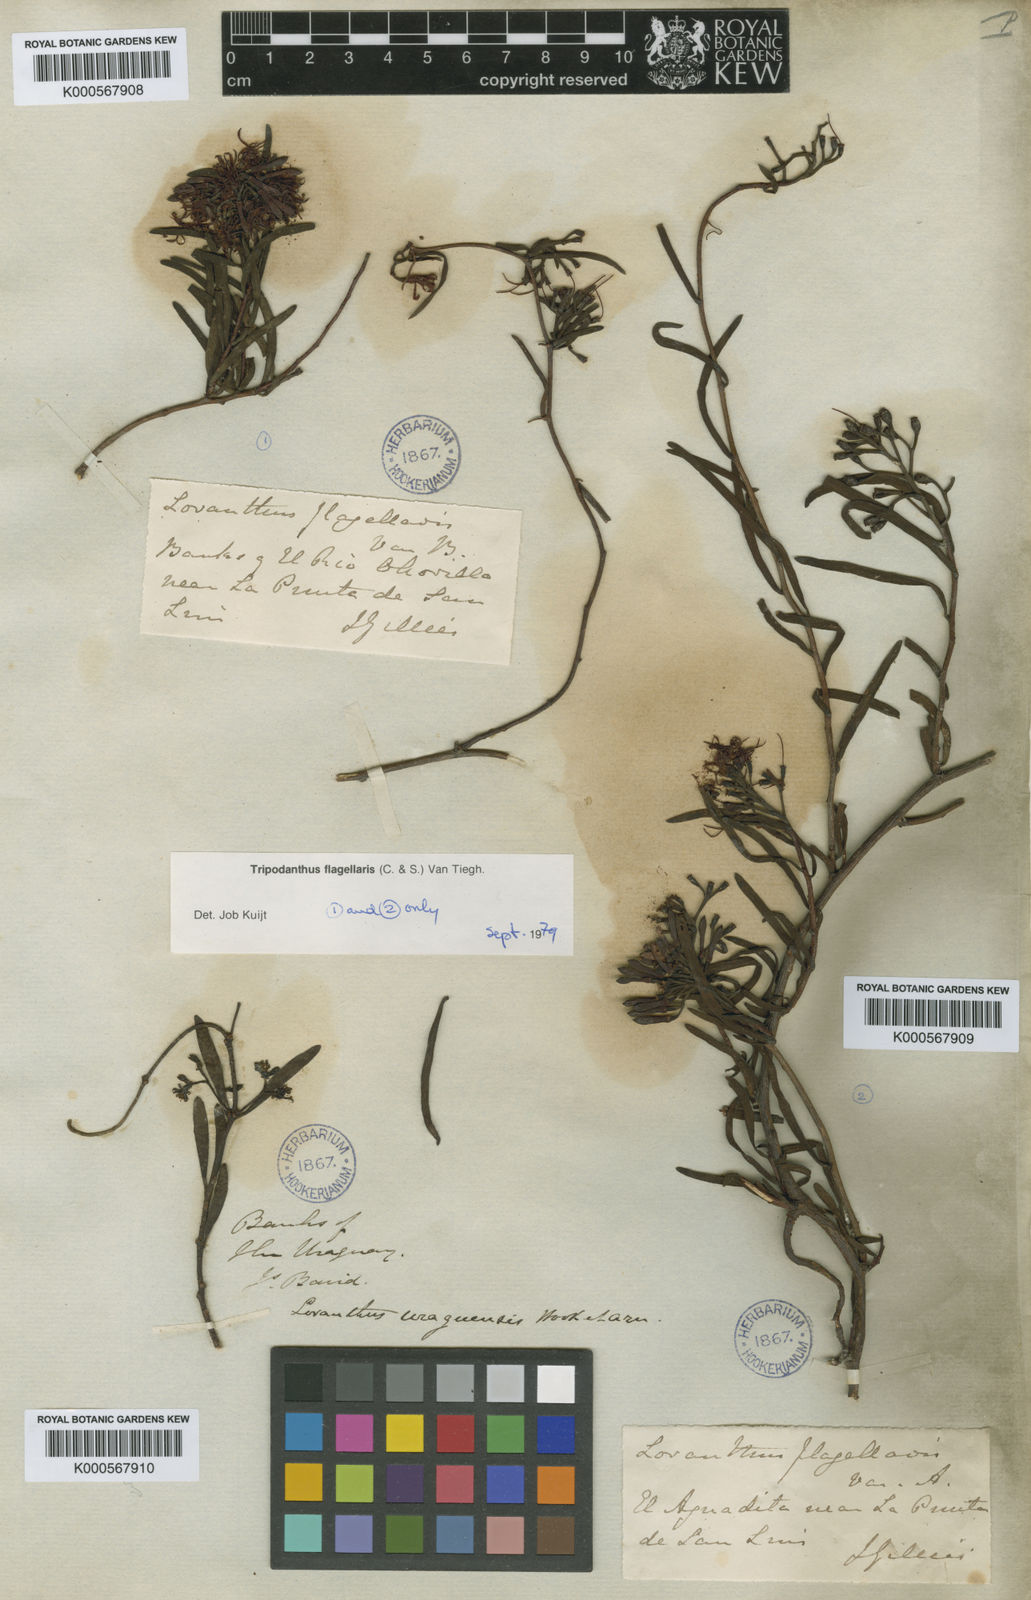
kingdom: Plantae
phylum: Tracheophyta
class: Magnoliopsida
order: Santalales
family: Loranthaceae
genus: Tripodanthus
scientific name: Tripodanthus flagellaris
